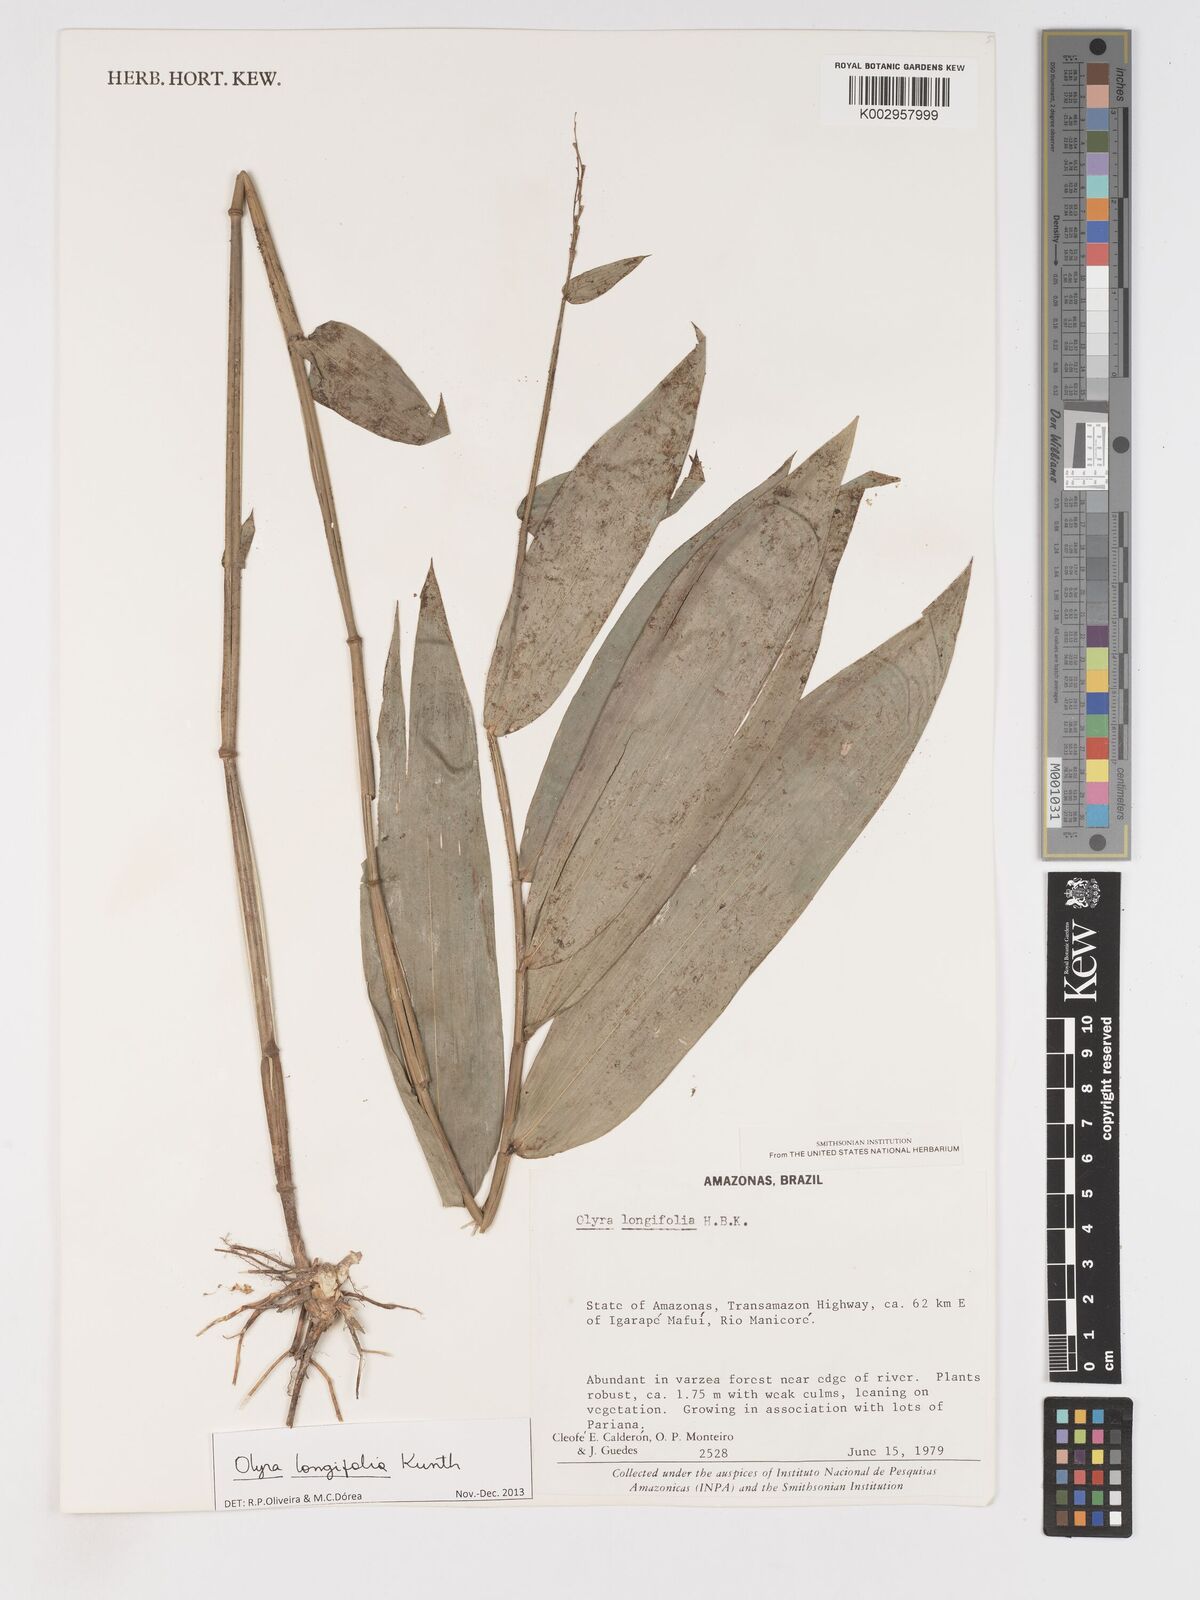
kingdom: Plantae
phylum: Tracheophyta
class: Liliopsida
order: Poales
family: Poaceae
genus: Olyra
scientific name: Olyra longifolia
